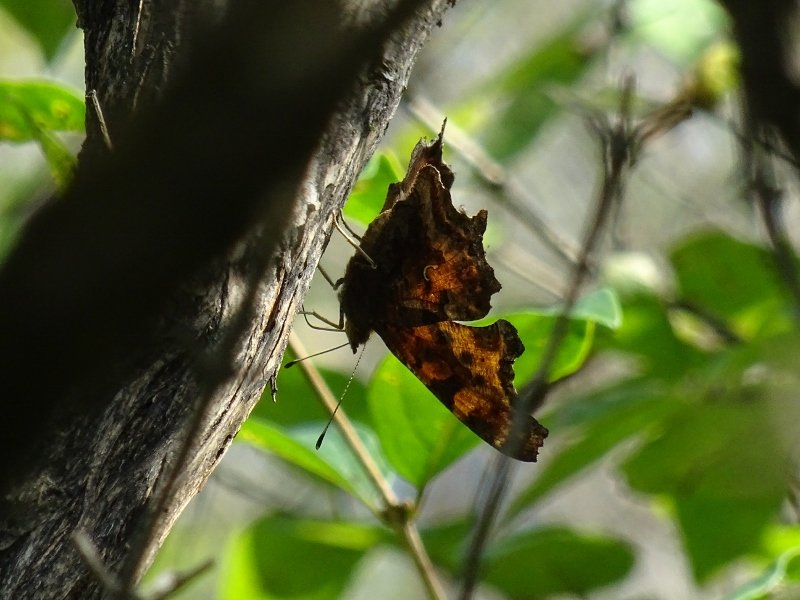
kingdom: Animalia
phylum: Arthropoda
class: Insecta
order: Lepidoptera
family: Nymphalidae
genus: Polygonia
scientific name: Polygonia comma
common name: Eastern Comma
